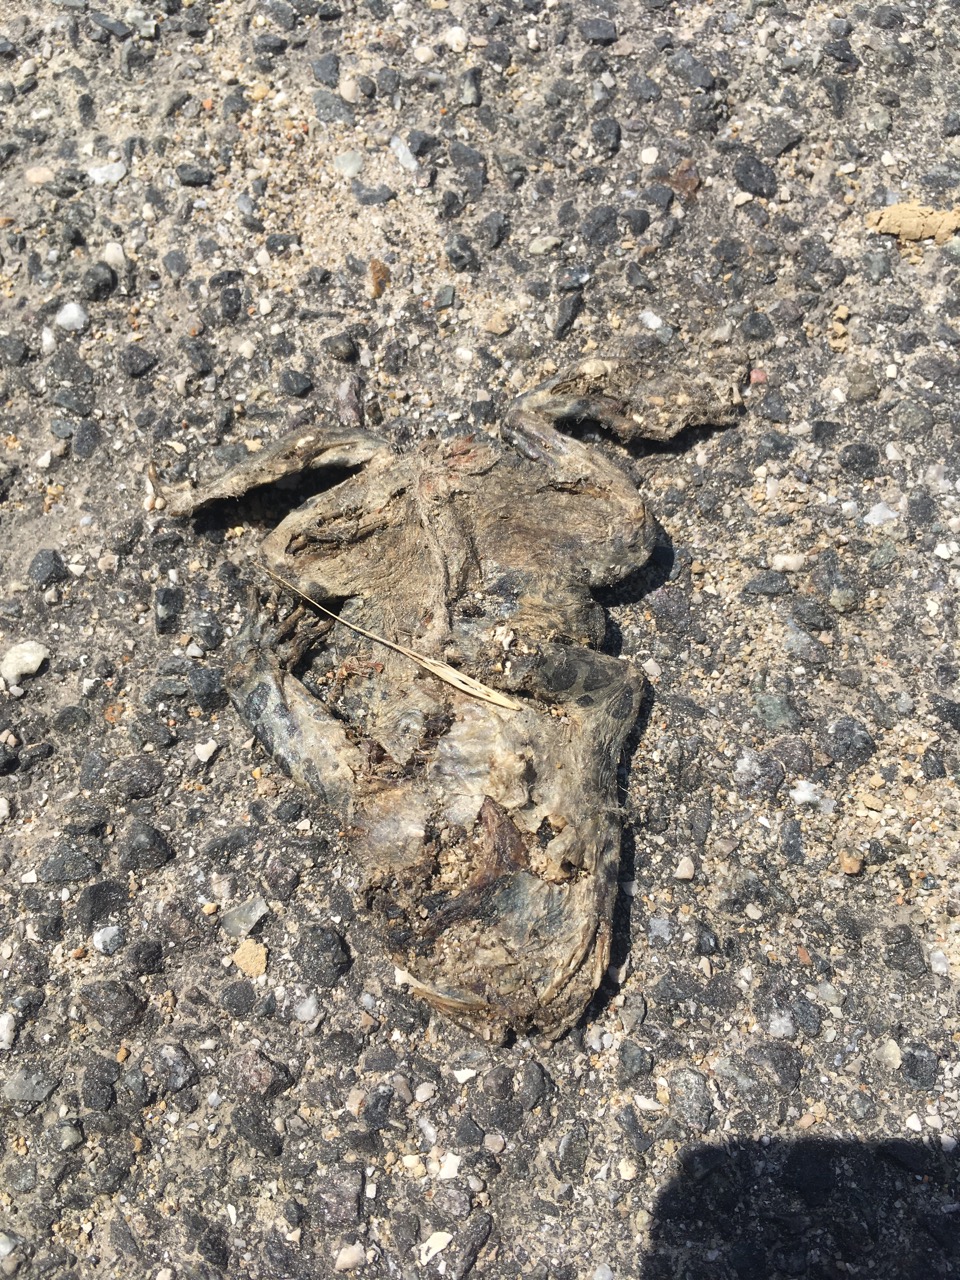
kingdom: Animalia
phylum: Chordata
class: Amphibia
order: Anura
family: Bufonidae
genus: Bufotes
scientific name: Bufotes viridis
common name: European green toad
